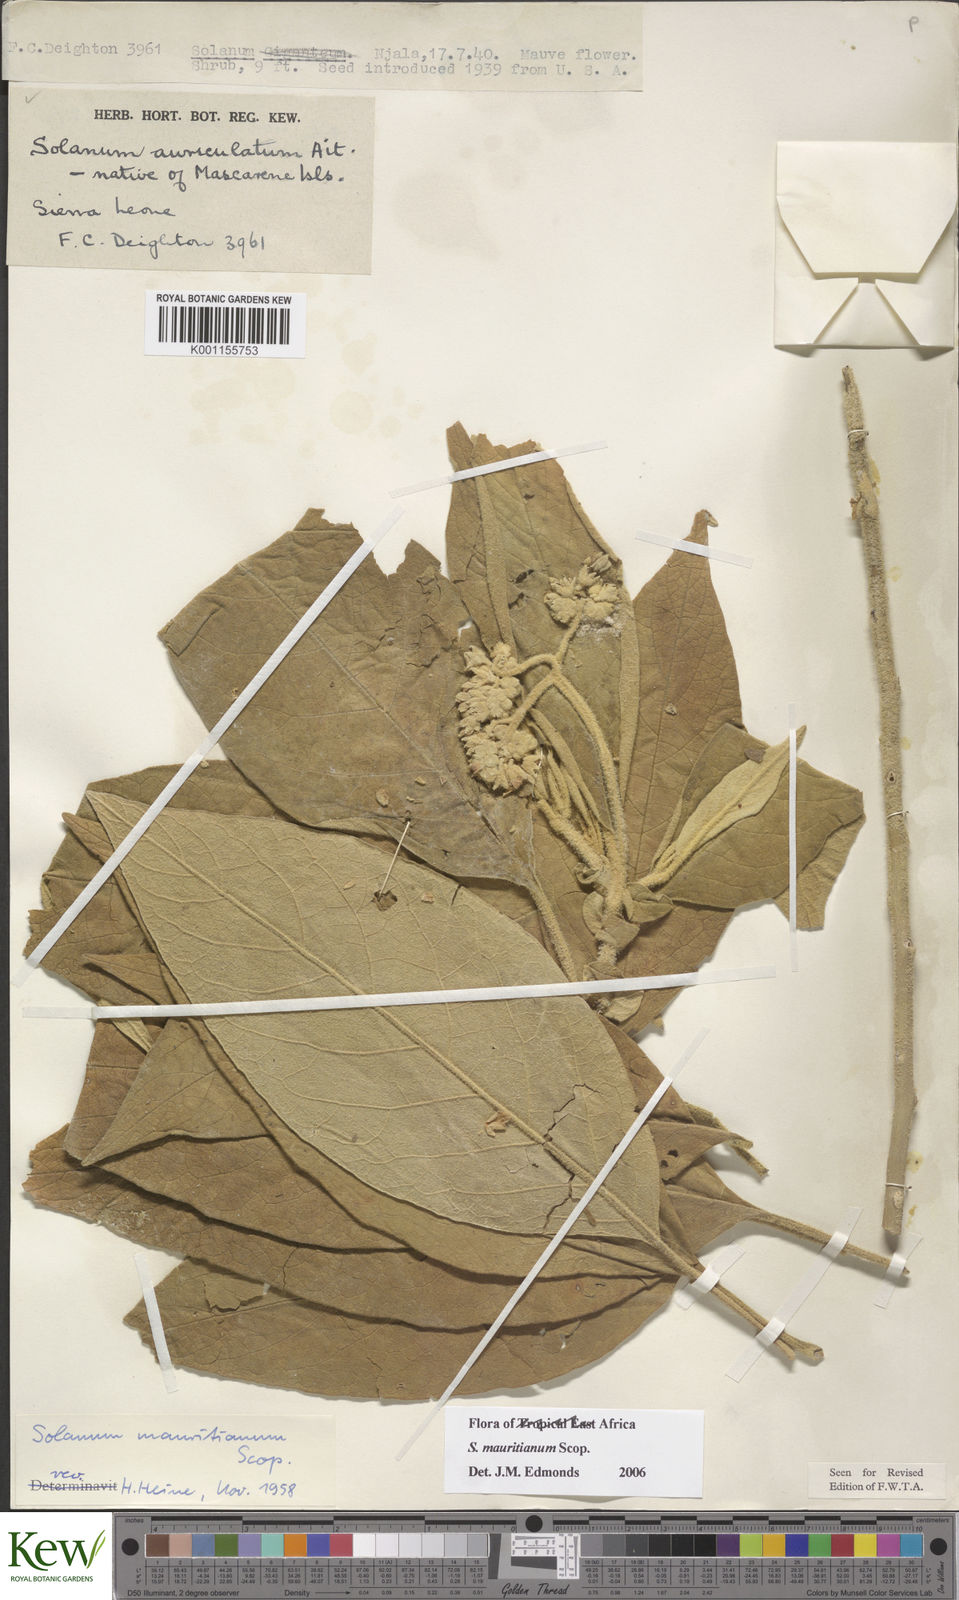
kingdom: Plantae
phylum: Tracheophyta
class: Magnoliopsida
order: Solanales
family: Solanaceae
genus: Solanum
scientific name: Solanum mauritianum
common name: Earleaf nightshade
